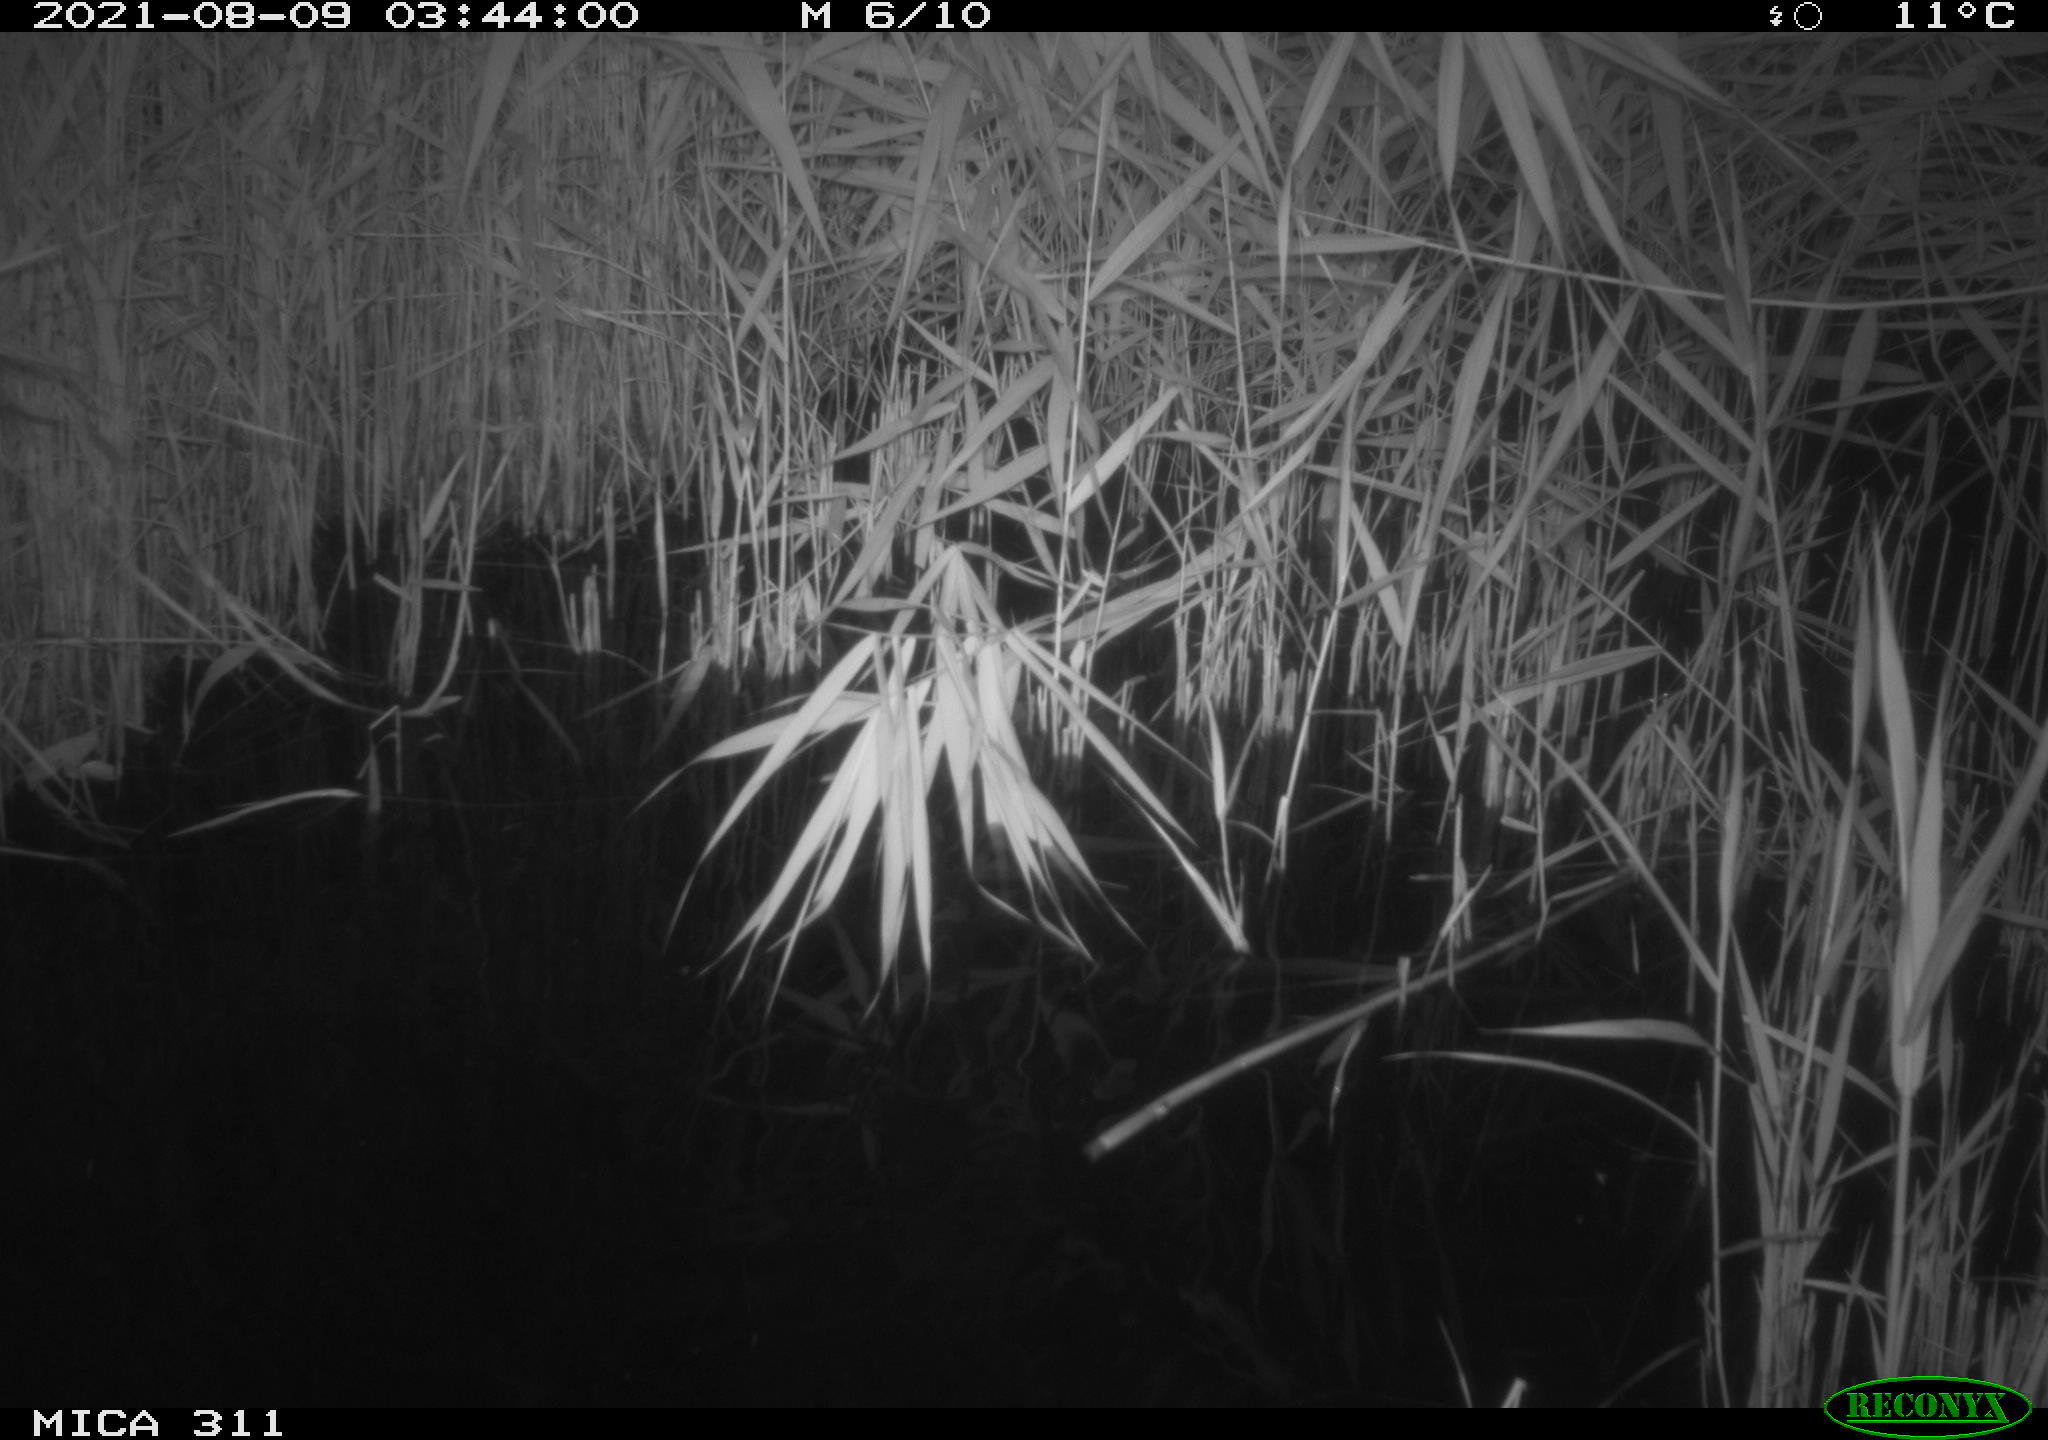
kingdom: Animalia
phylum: Chordata
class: Mammalia
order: Rodentia
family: Muridae
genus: Rattus
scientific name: Rattus norvegicus
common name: Brown rat
